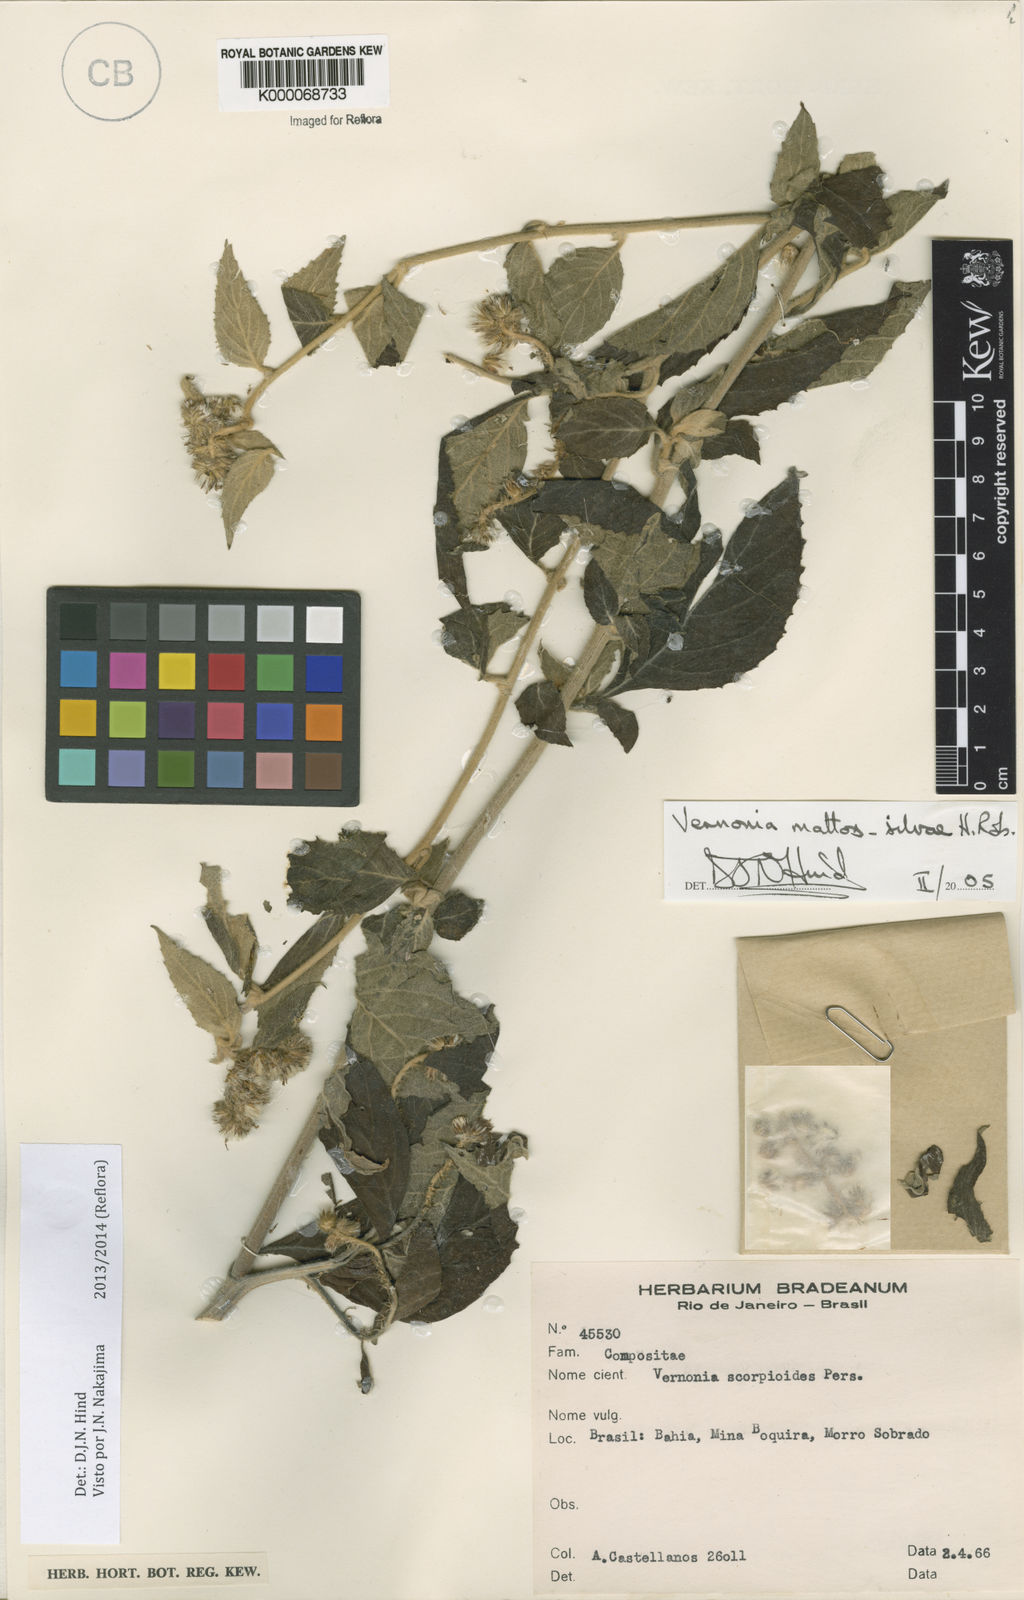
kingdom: Plantae
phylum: Tracheophyta
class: Magnoliopsida
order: Asterales
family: Asteraceae
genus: Cyrtocymura
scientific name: Cyrtocymura mattos-silvae
